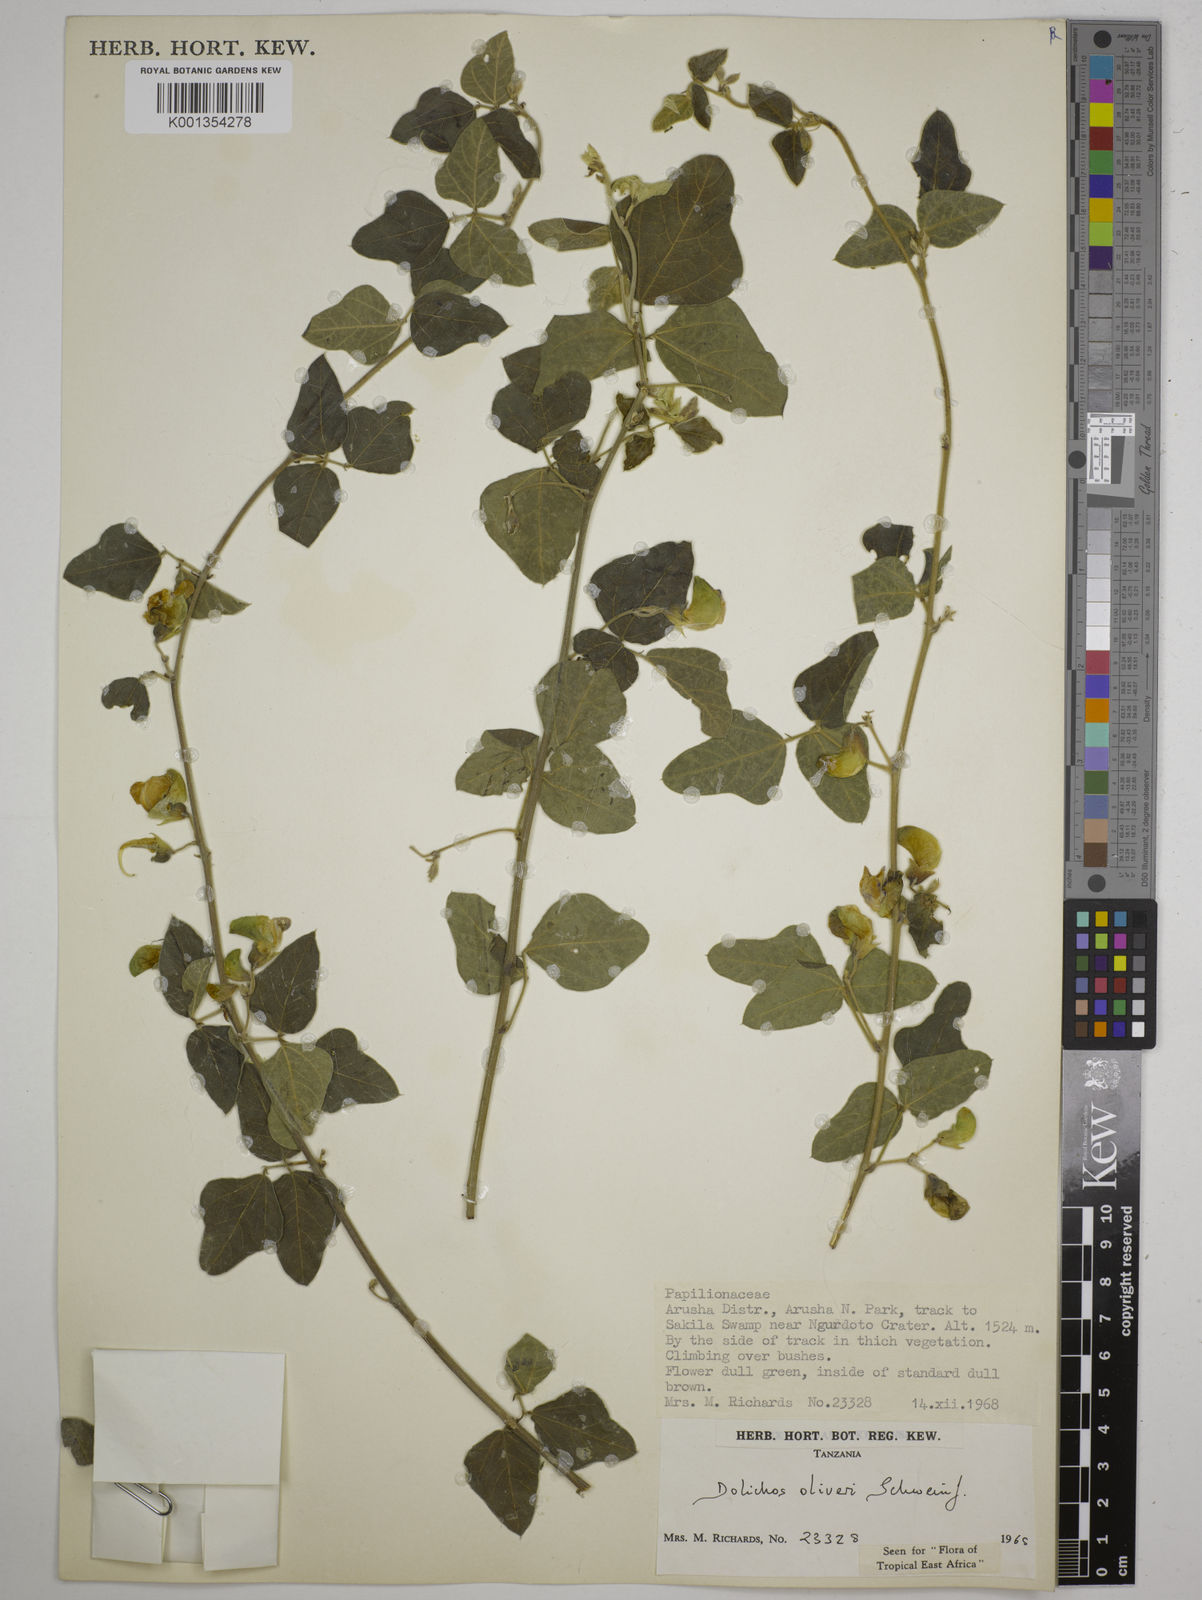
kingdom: Plantae
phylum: Tracheophyta
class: Magnoliopsida
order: Fabales
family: Fabaceae
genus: Dolichos
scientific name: Dolichos oliveri
